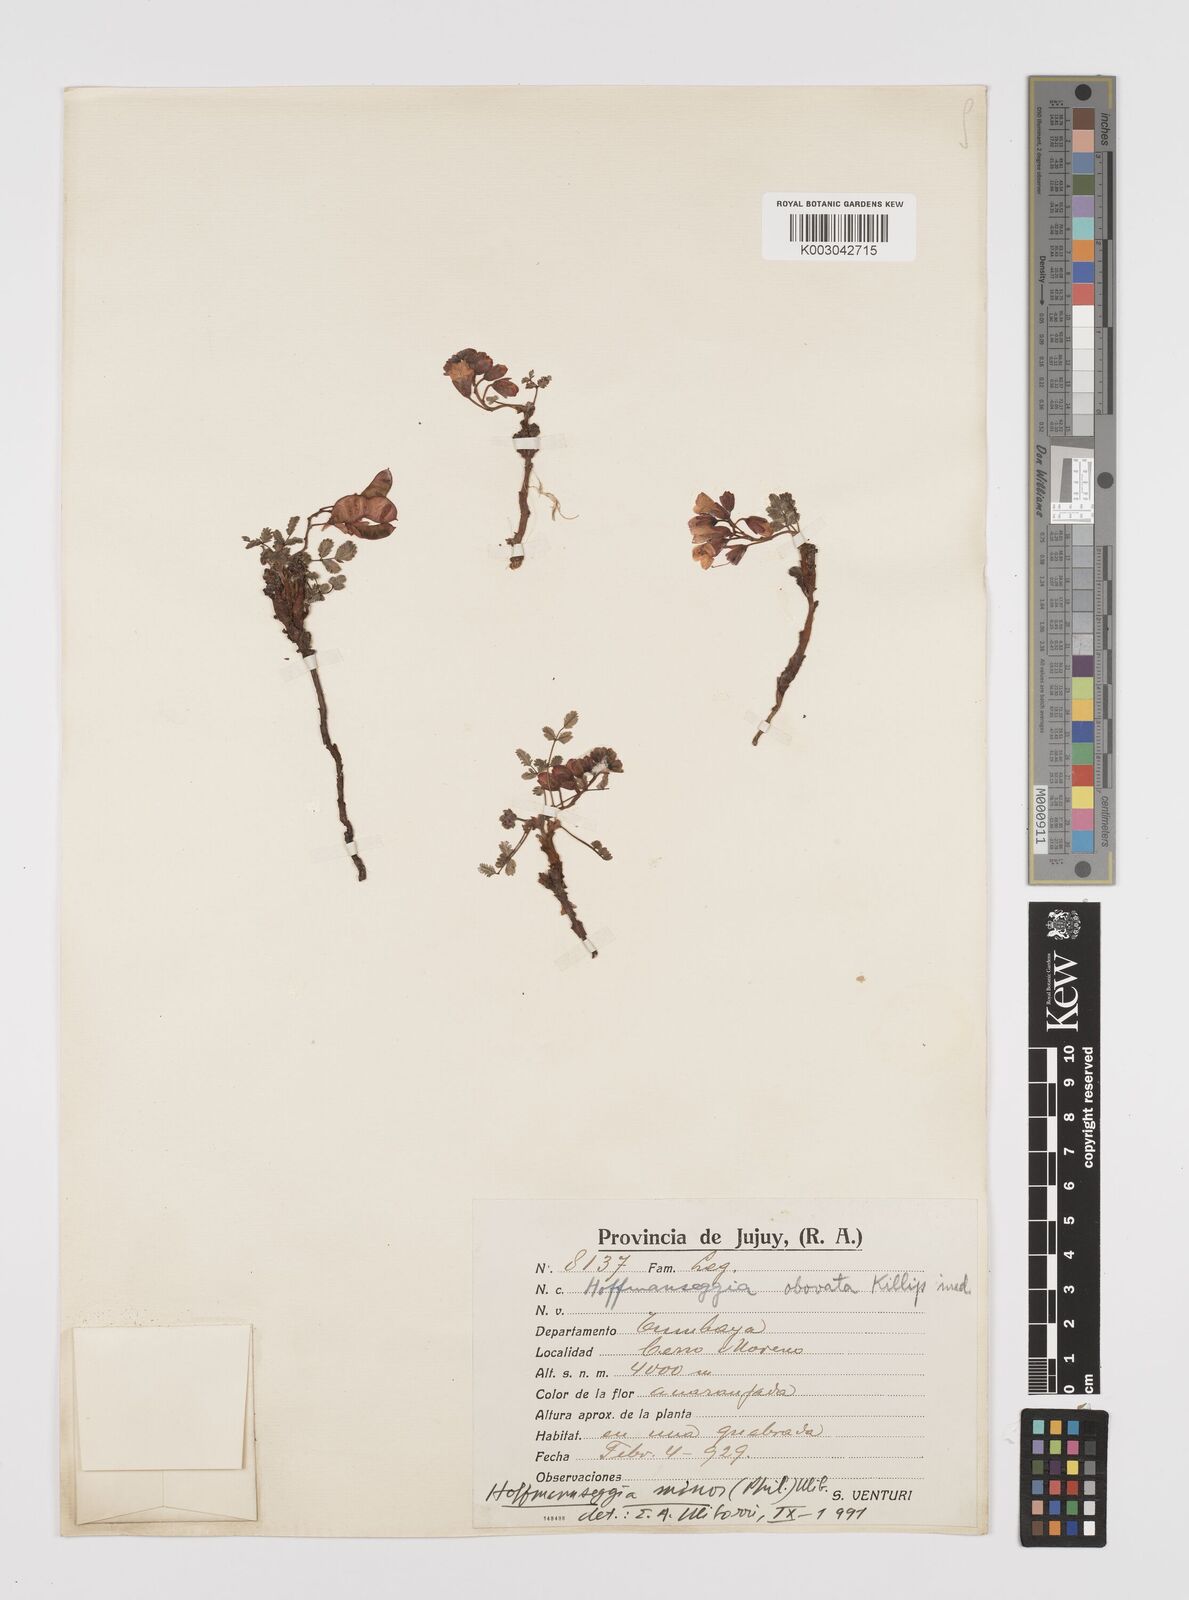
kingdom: Plantae
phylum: Tracheophyta
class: Magnoliopsida
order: Fabales
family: Fabaceae
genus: Hoffmannseggia
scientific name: Hoffmannseggia minor
